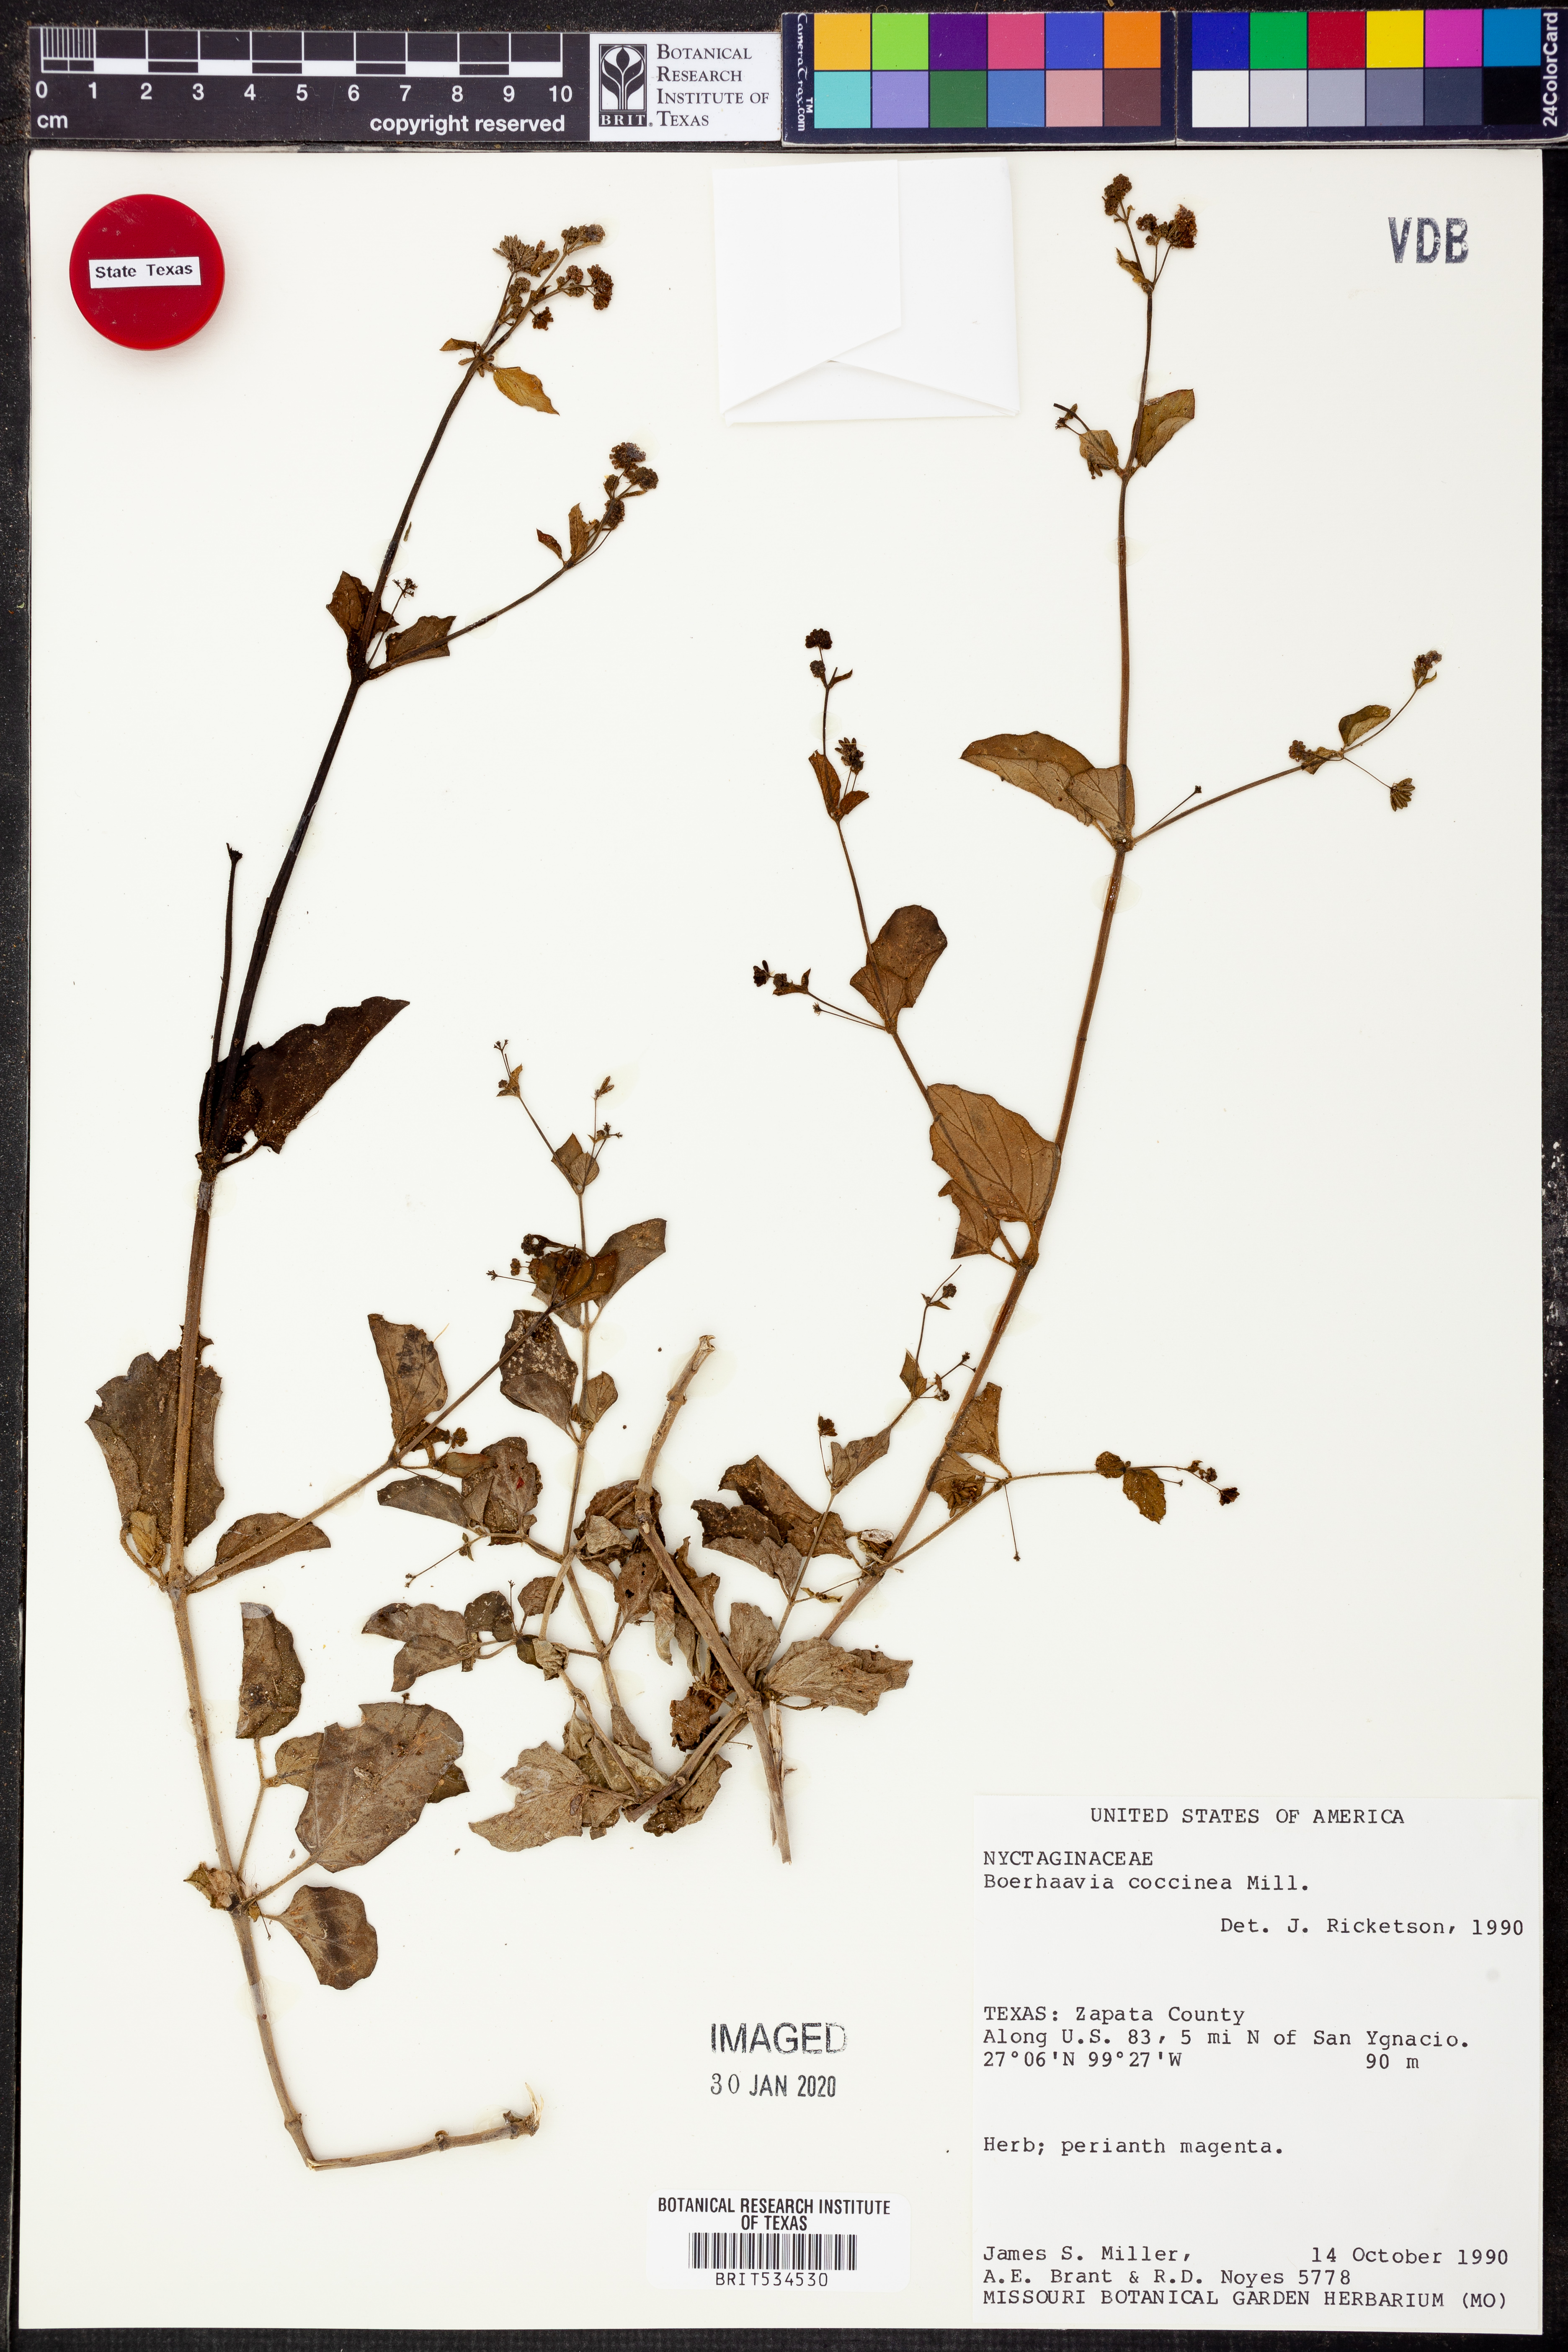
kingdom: Plantae
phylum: Tracheophyta
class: Magnoliopsida
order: Caryophyllales
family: Nyctaginaceae
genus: Boerhavia
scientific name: Boerhavia coccinea
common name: Scarlet spiderling
